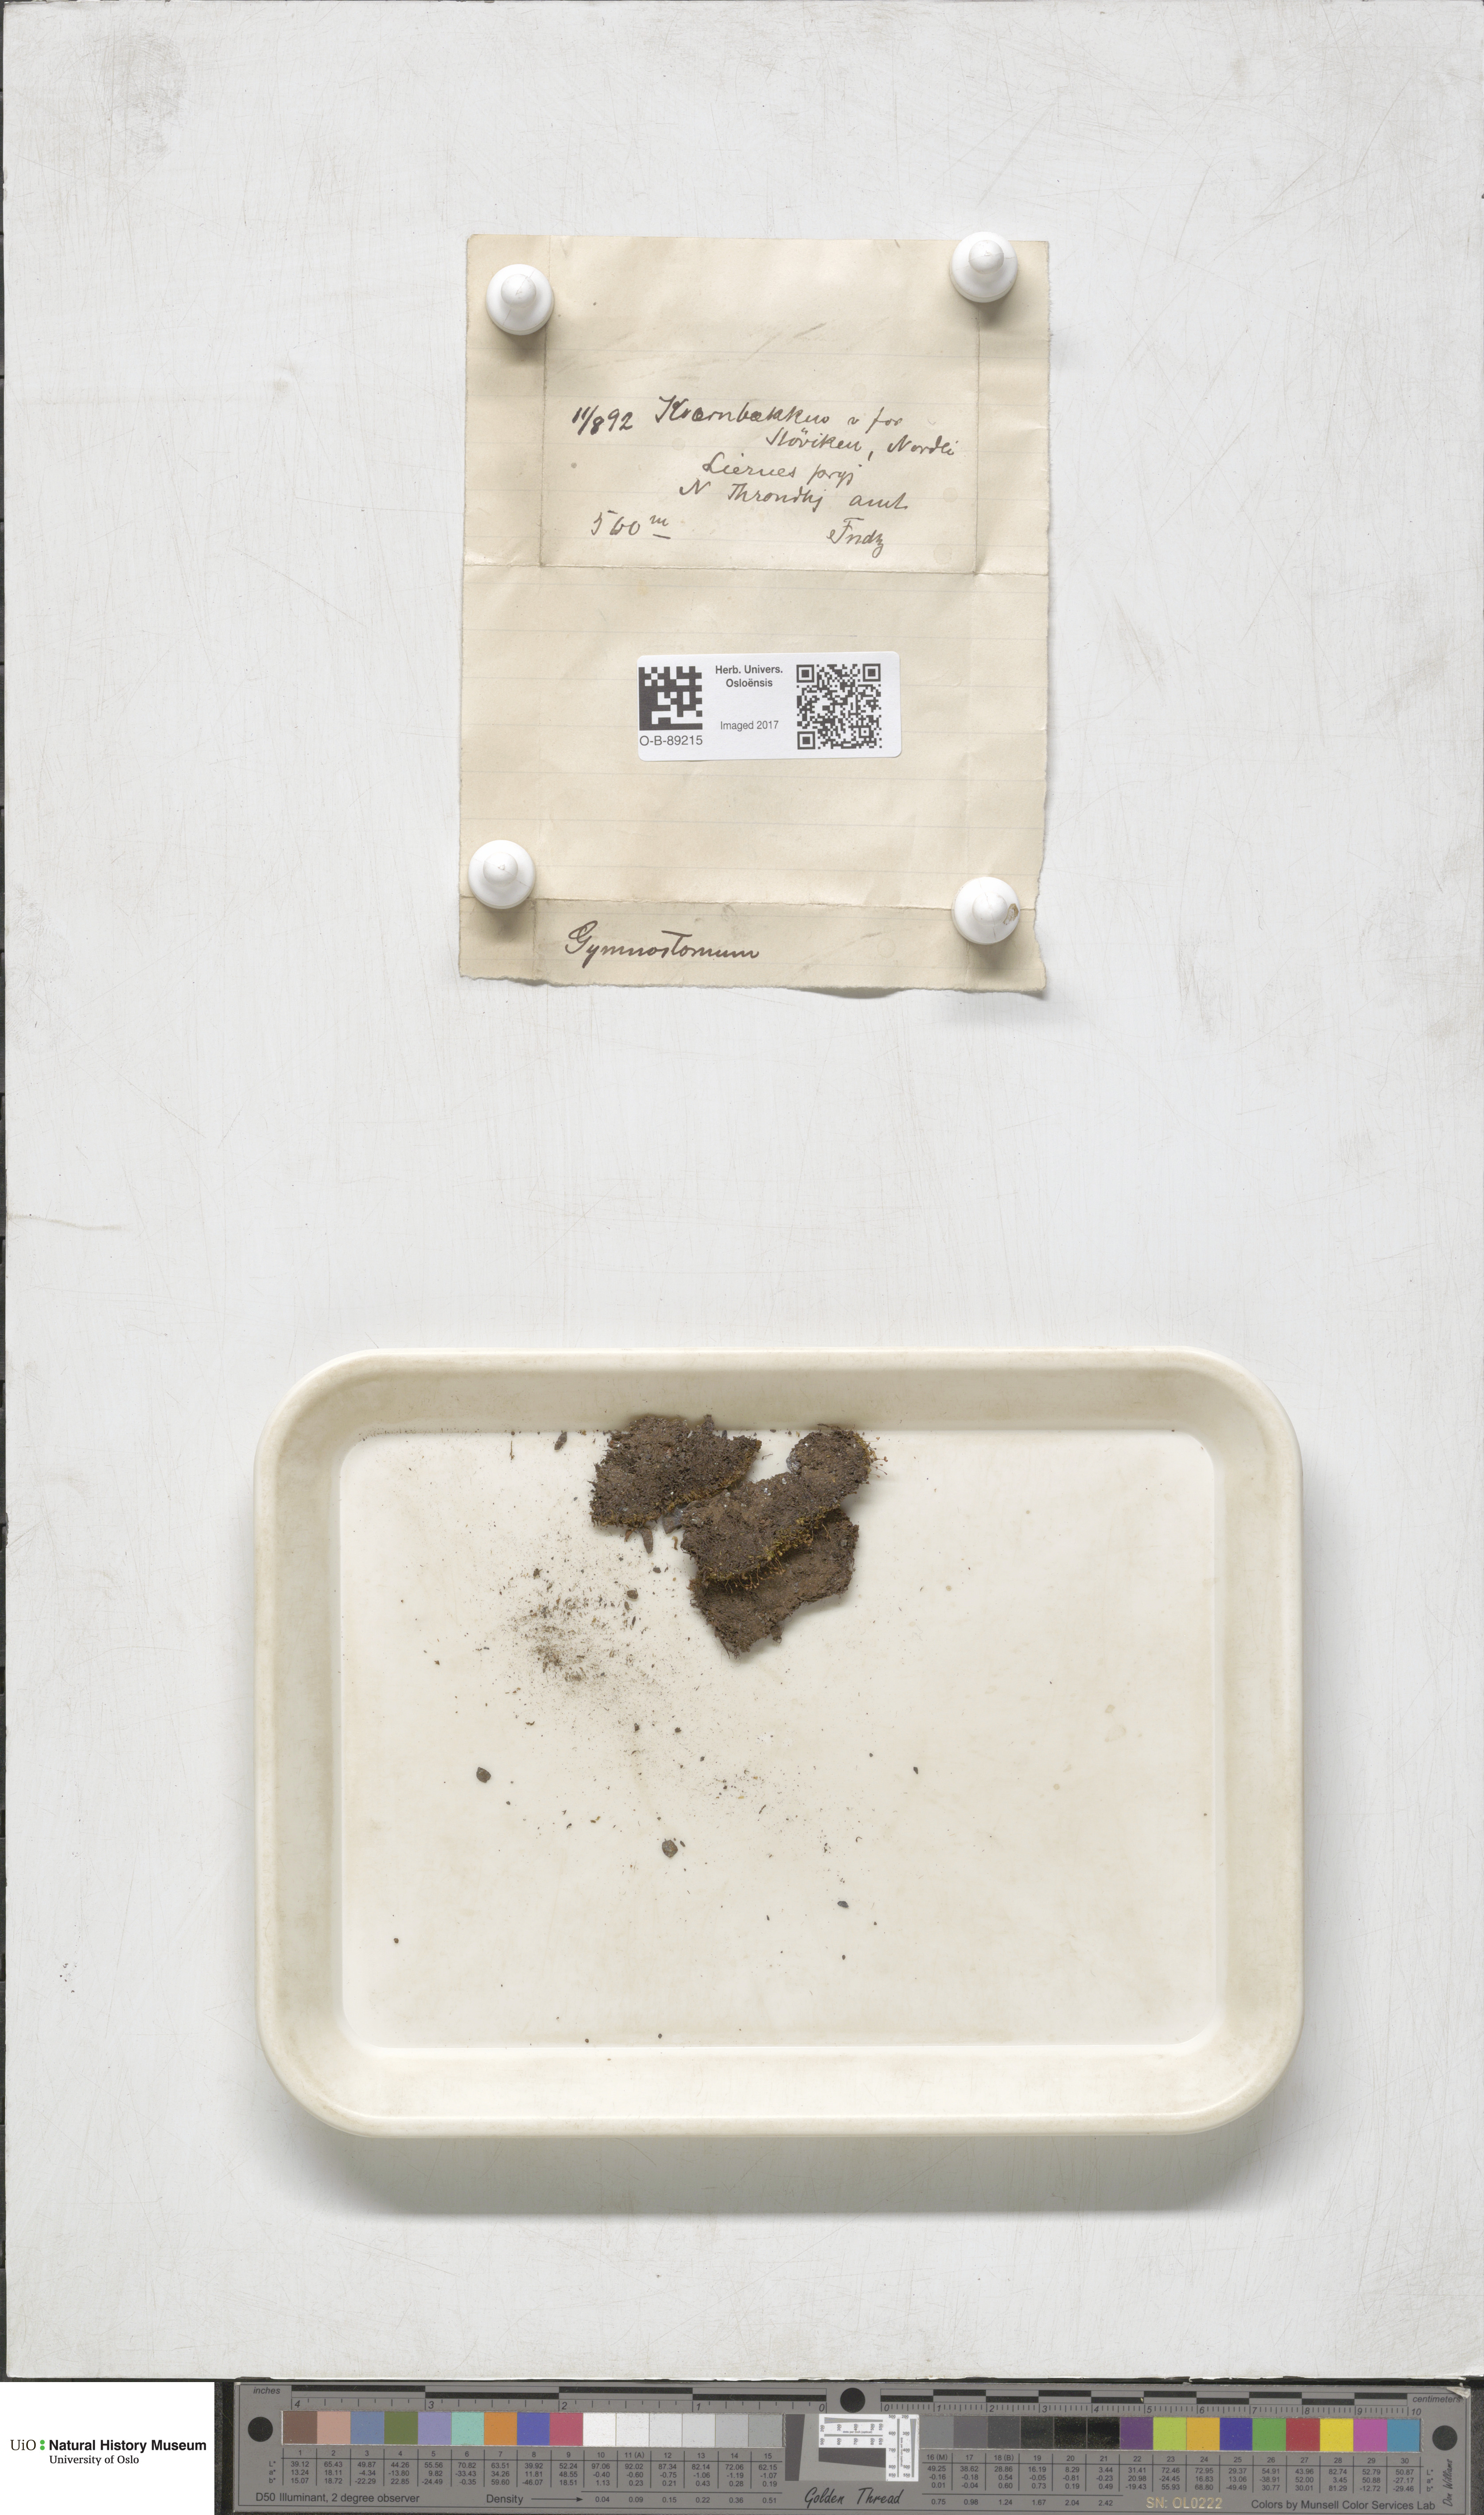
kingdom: Plantae
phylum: Bryophyta
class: Bryopsida
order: Pottiales
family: Pottiaceae
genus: Gymnostomum
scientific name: Gymnostomum aeruginosum
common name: Verdigris tufa-moss
